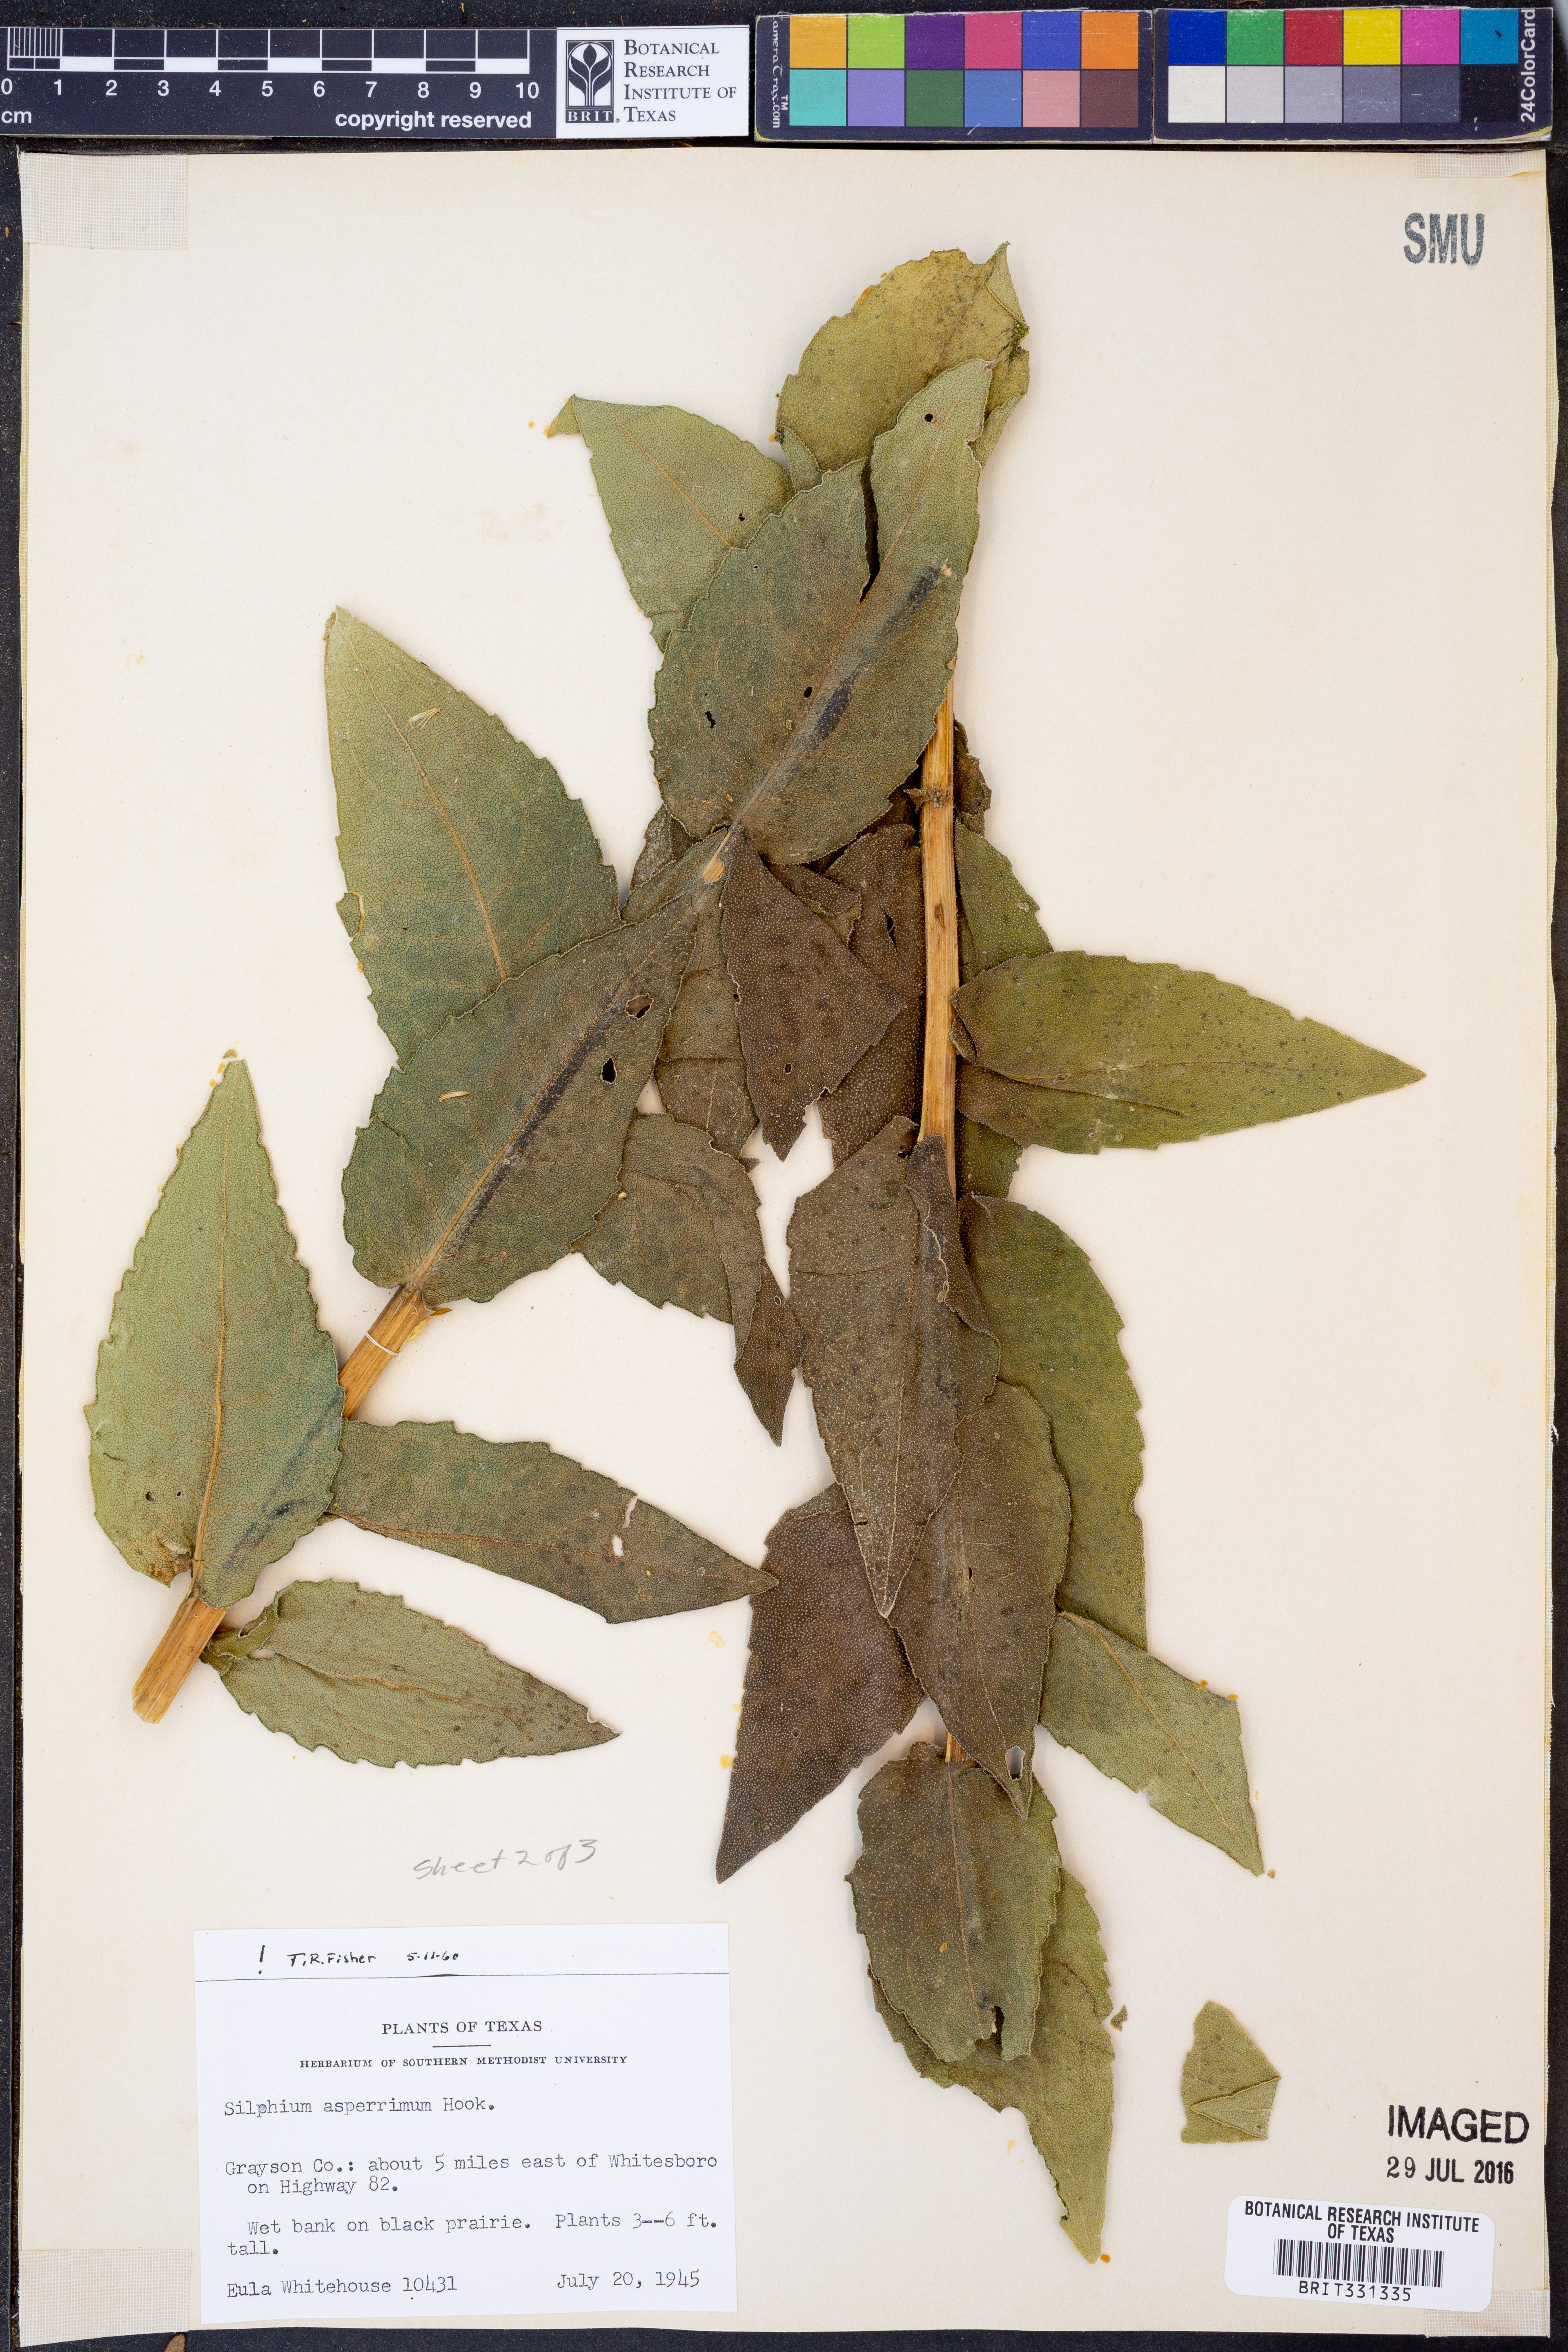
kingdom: Plantae
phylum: Tracheophyta
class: Magnoliopsida
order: Asterales
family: Asteraceae
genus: Silphium
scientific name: Silphium asperrimum
